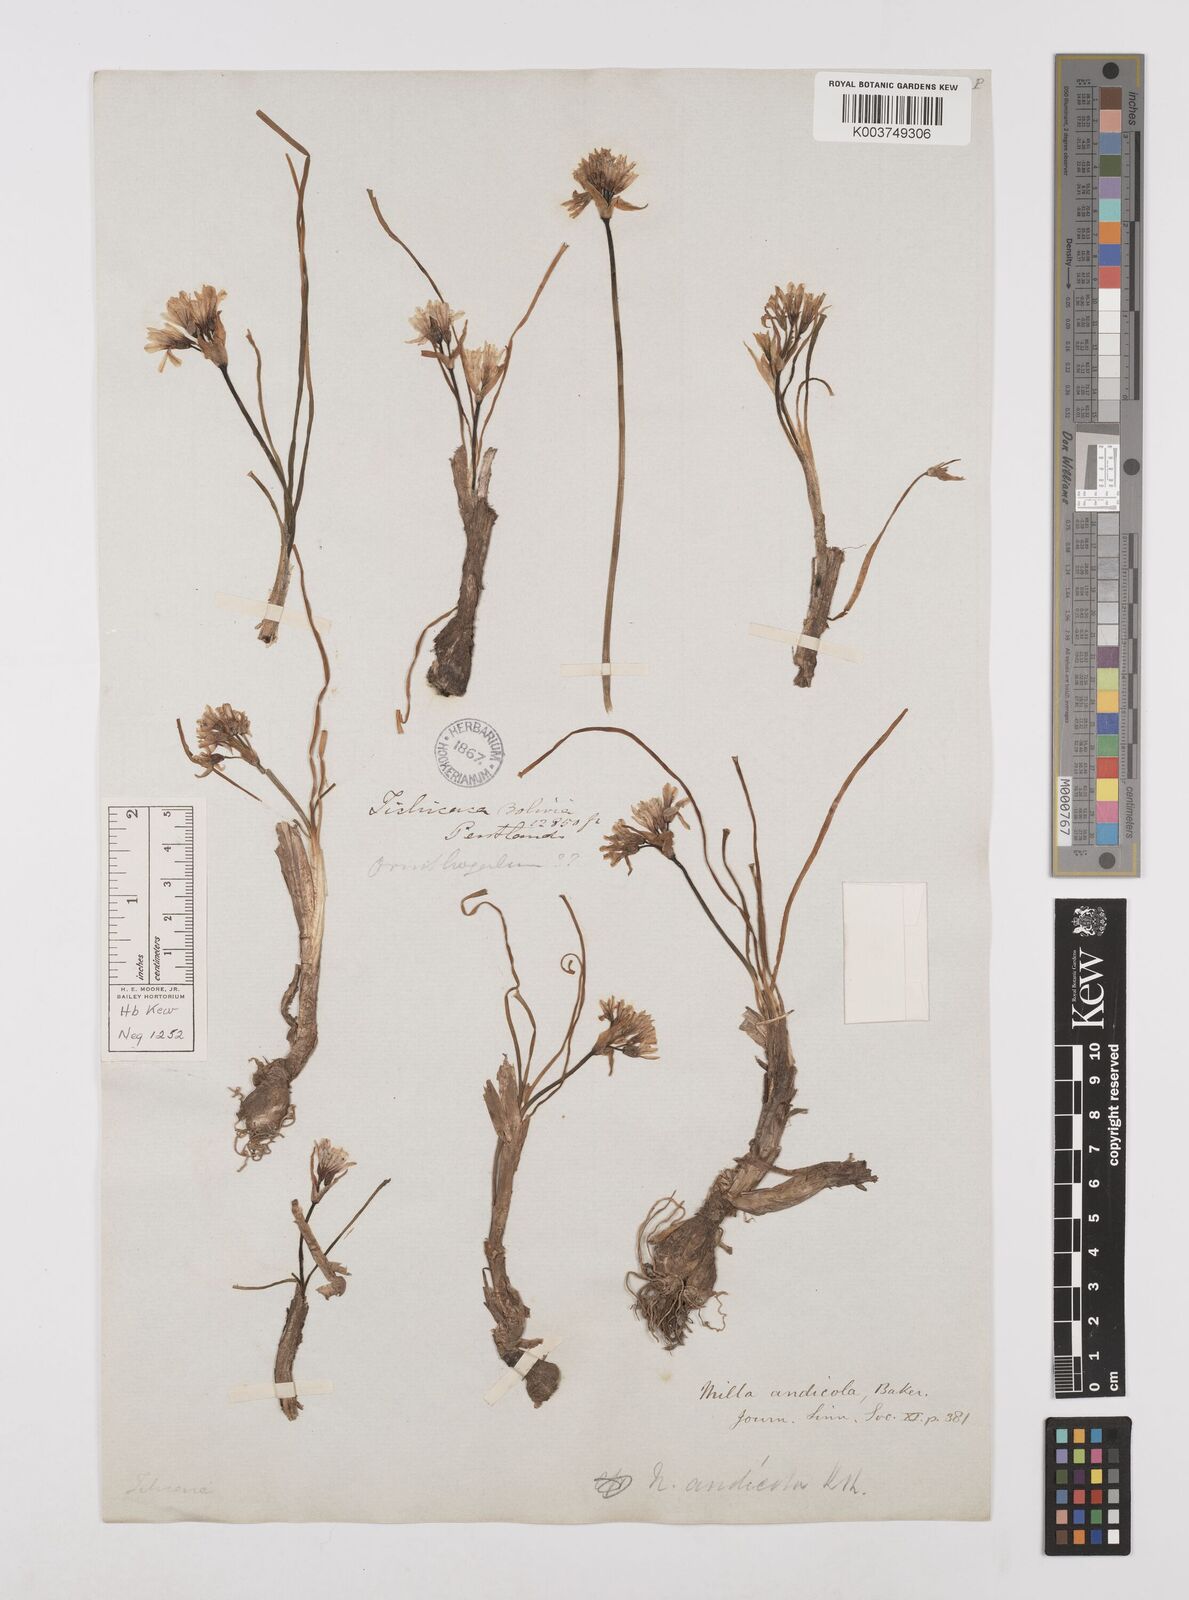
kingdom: Plantae
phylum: Tracheophyta
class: Liliopsida
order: Asparagales
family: Amaryllidaceae
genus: Nothoscordum
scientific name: Nothoscordum andicola
